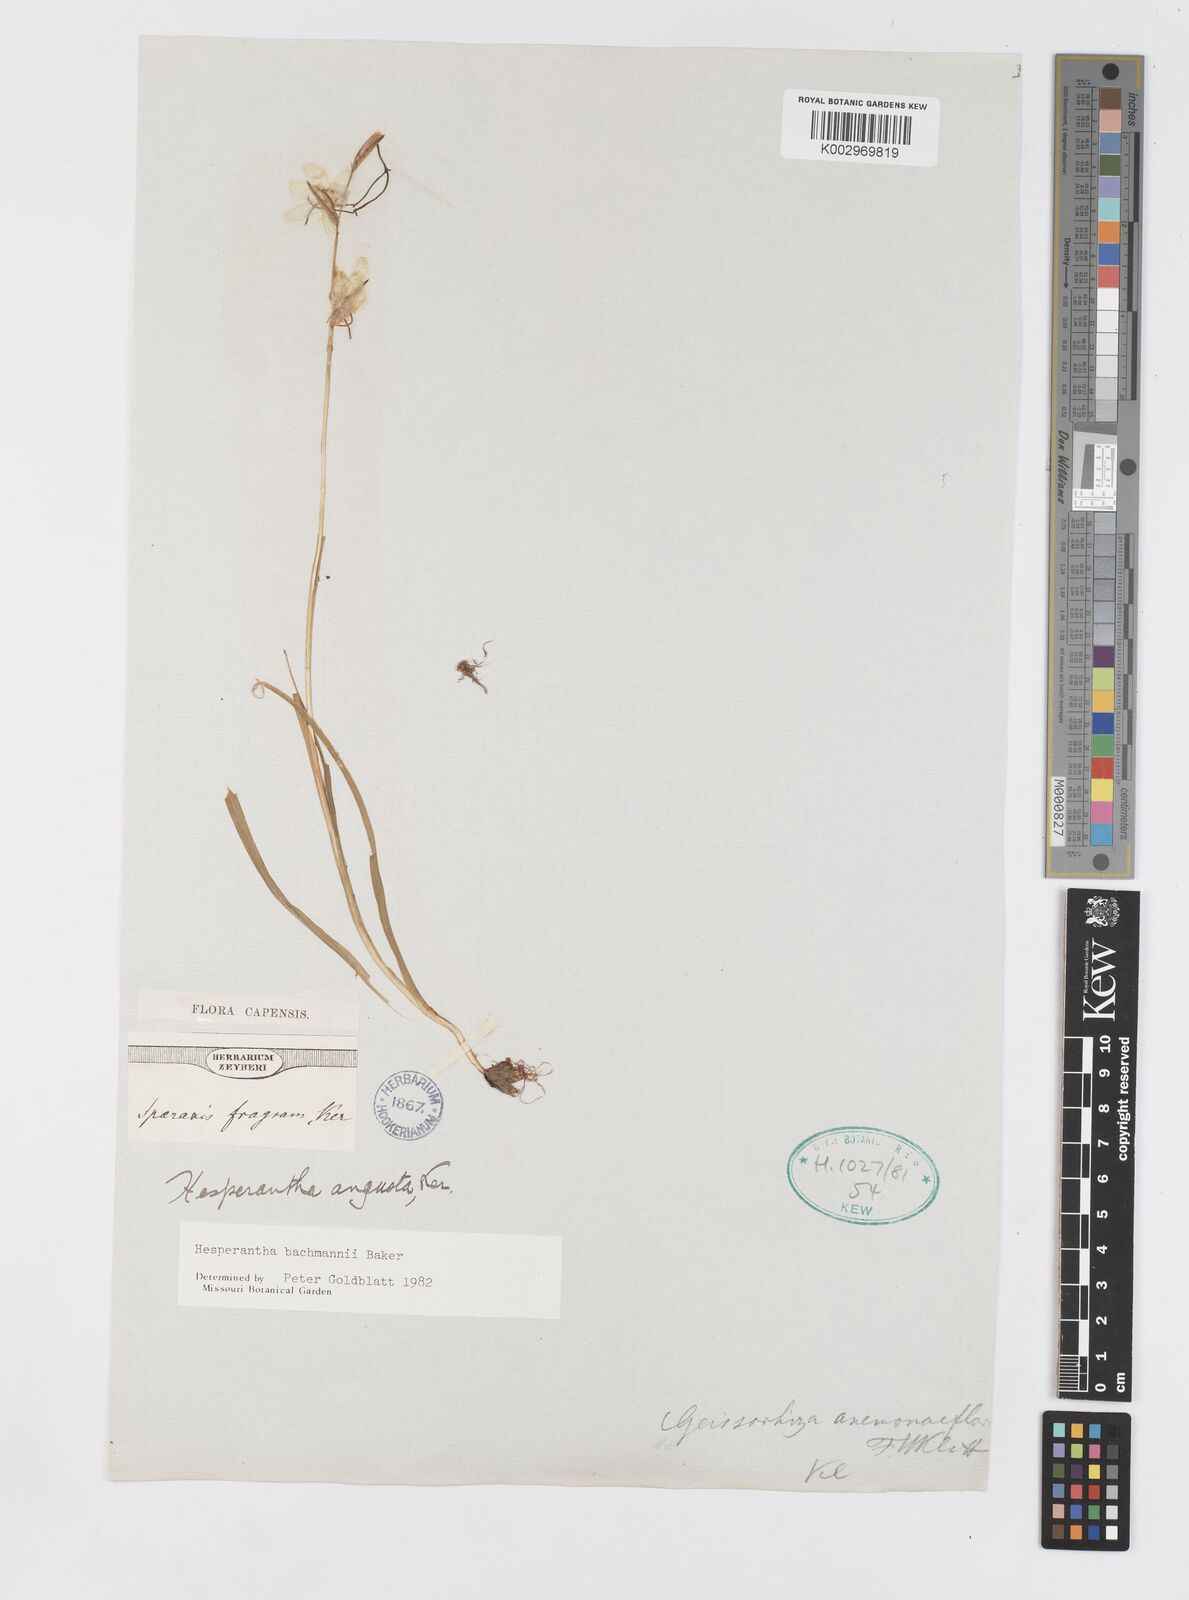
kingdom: Plantae
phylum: Tracheophyta
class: Liliopsida
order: Asparagales
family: Iridaceae
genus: Hesperantha
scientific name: Hesperantha bachmannii
